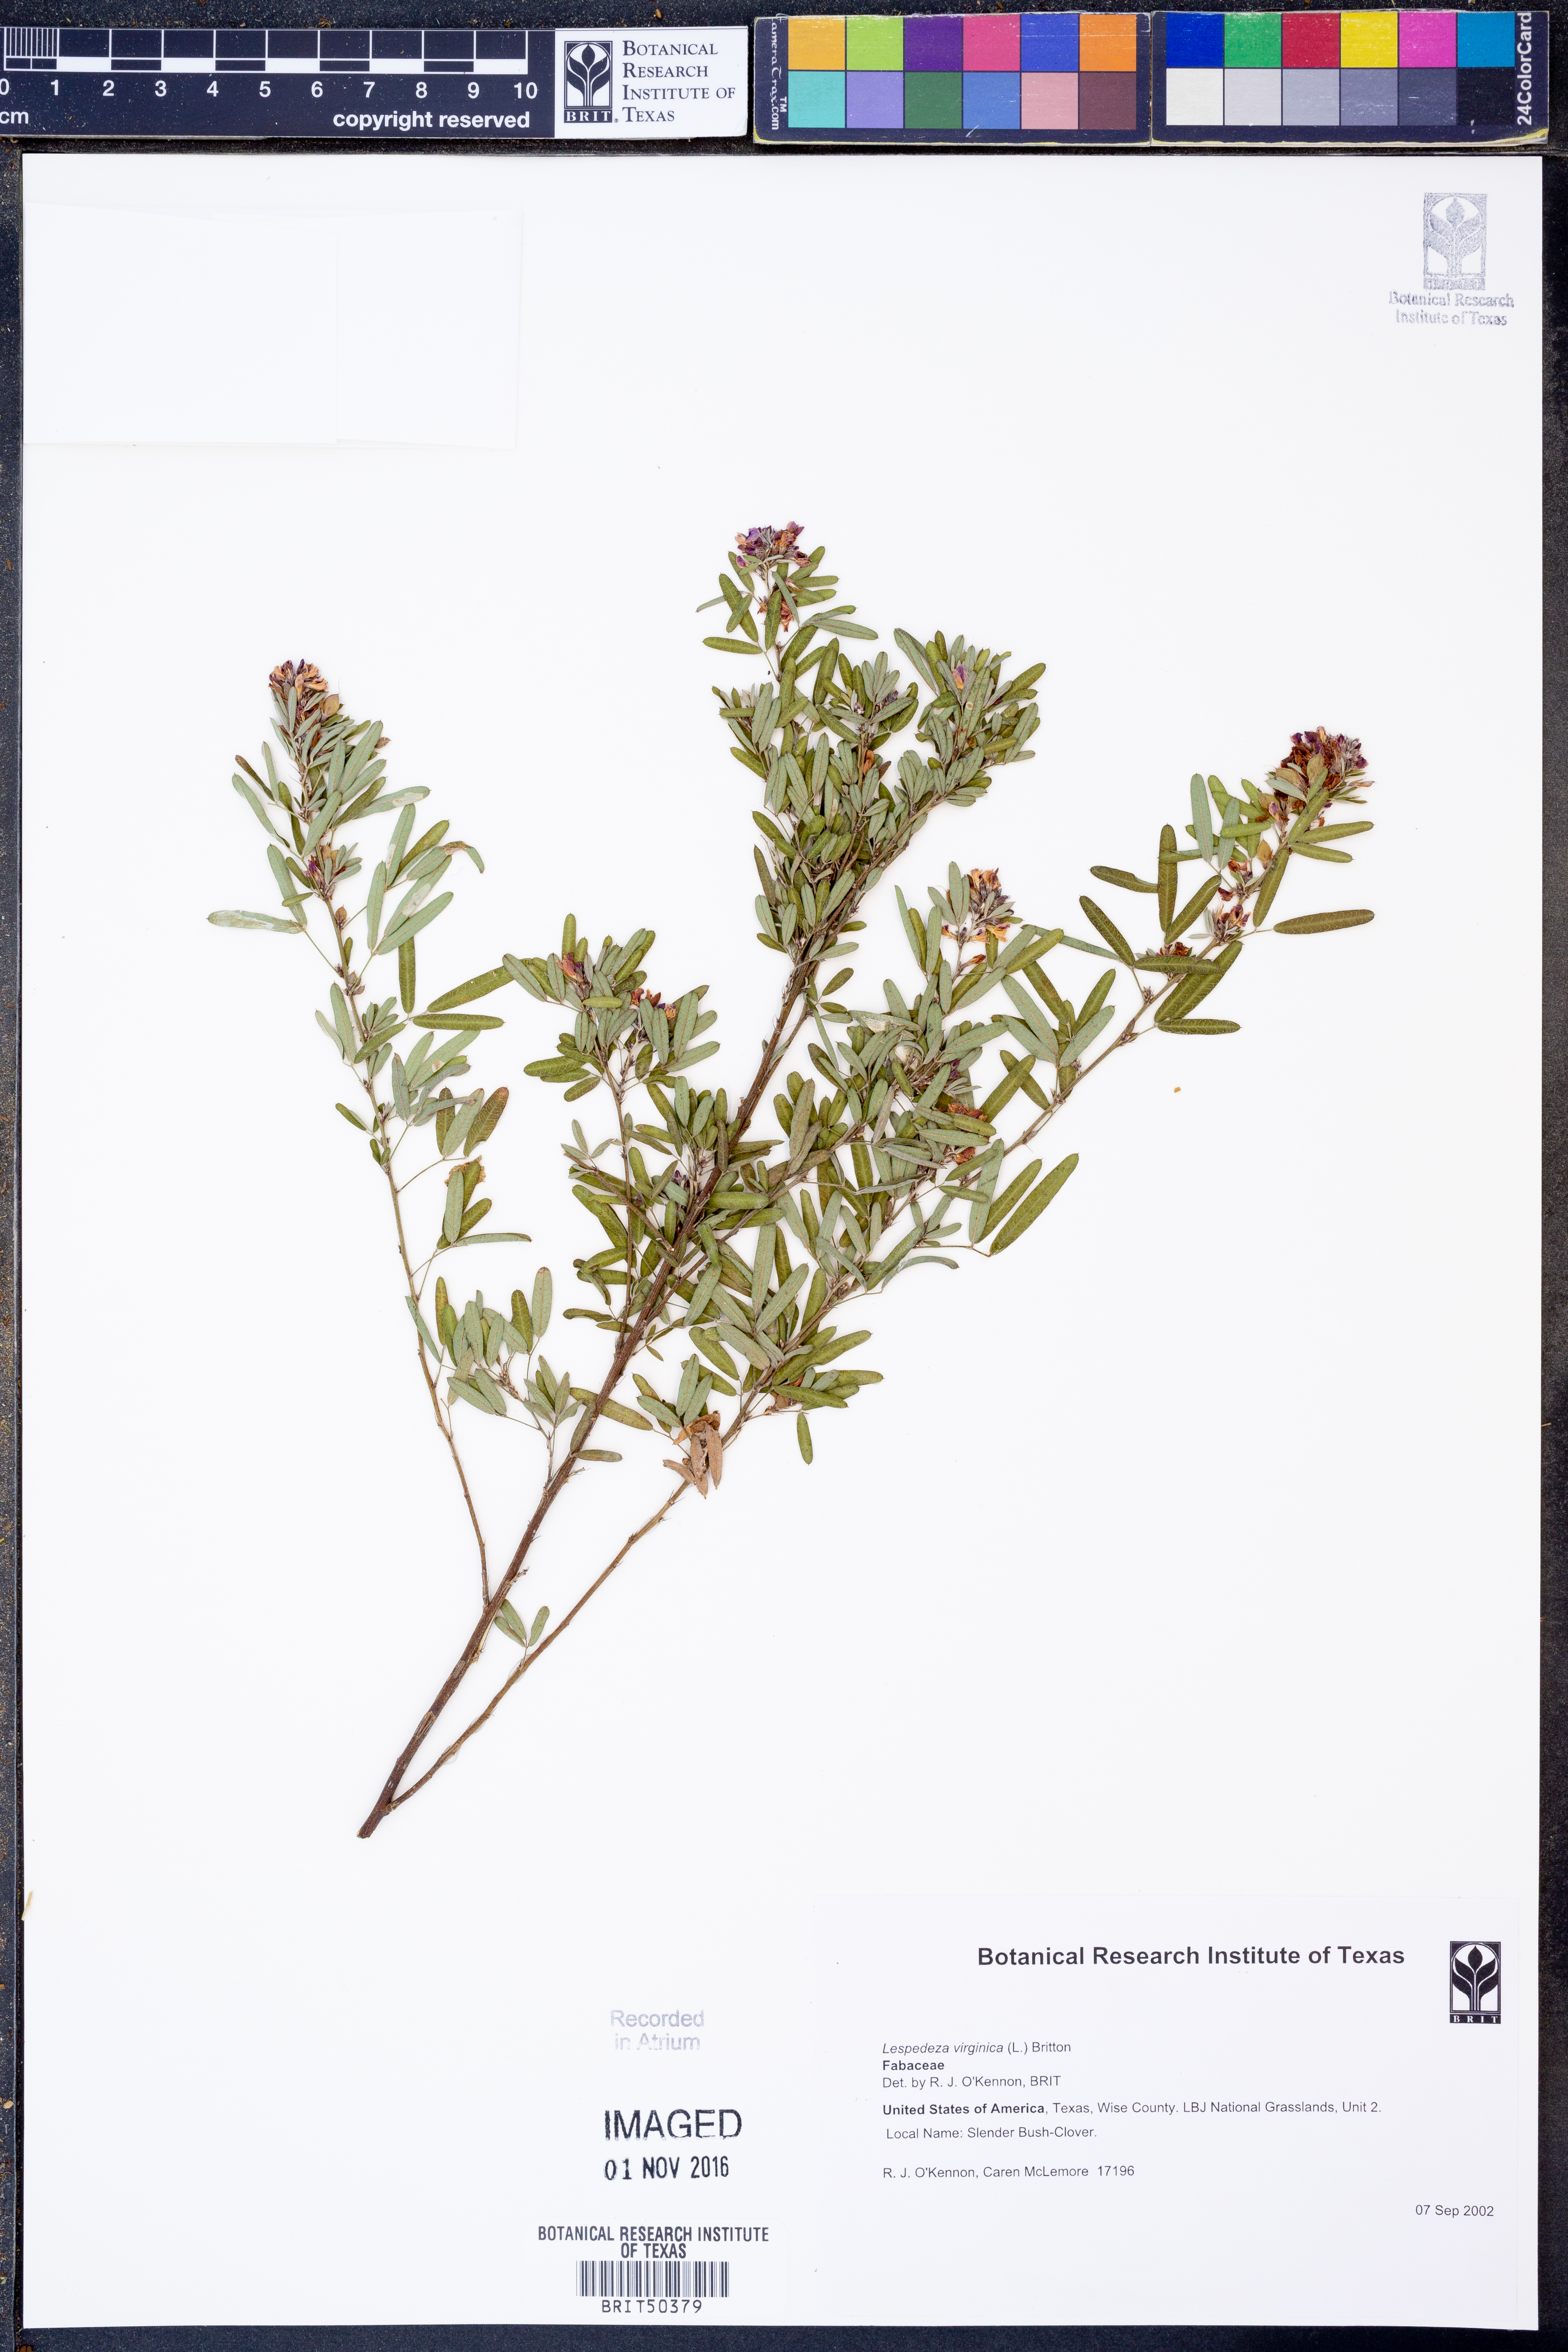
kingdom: Plantae
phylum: Tracheophyta
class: Magnoliopsida
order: Fabales
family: Fabaceae
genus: Lespedeza
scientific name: Lespedeza virginica
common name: Slender bush-clover
